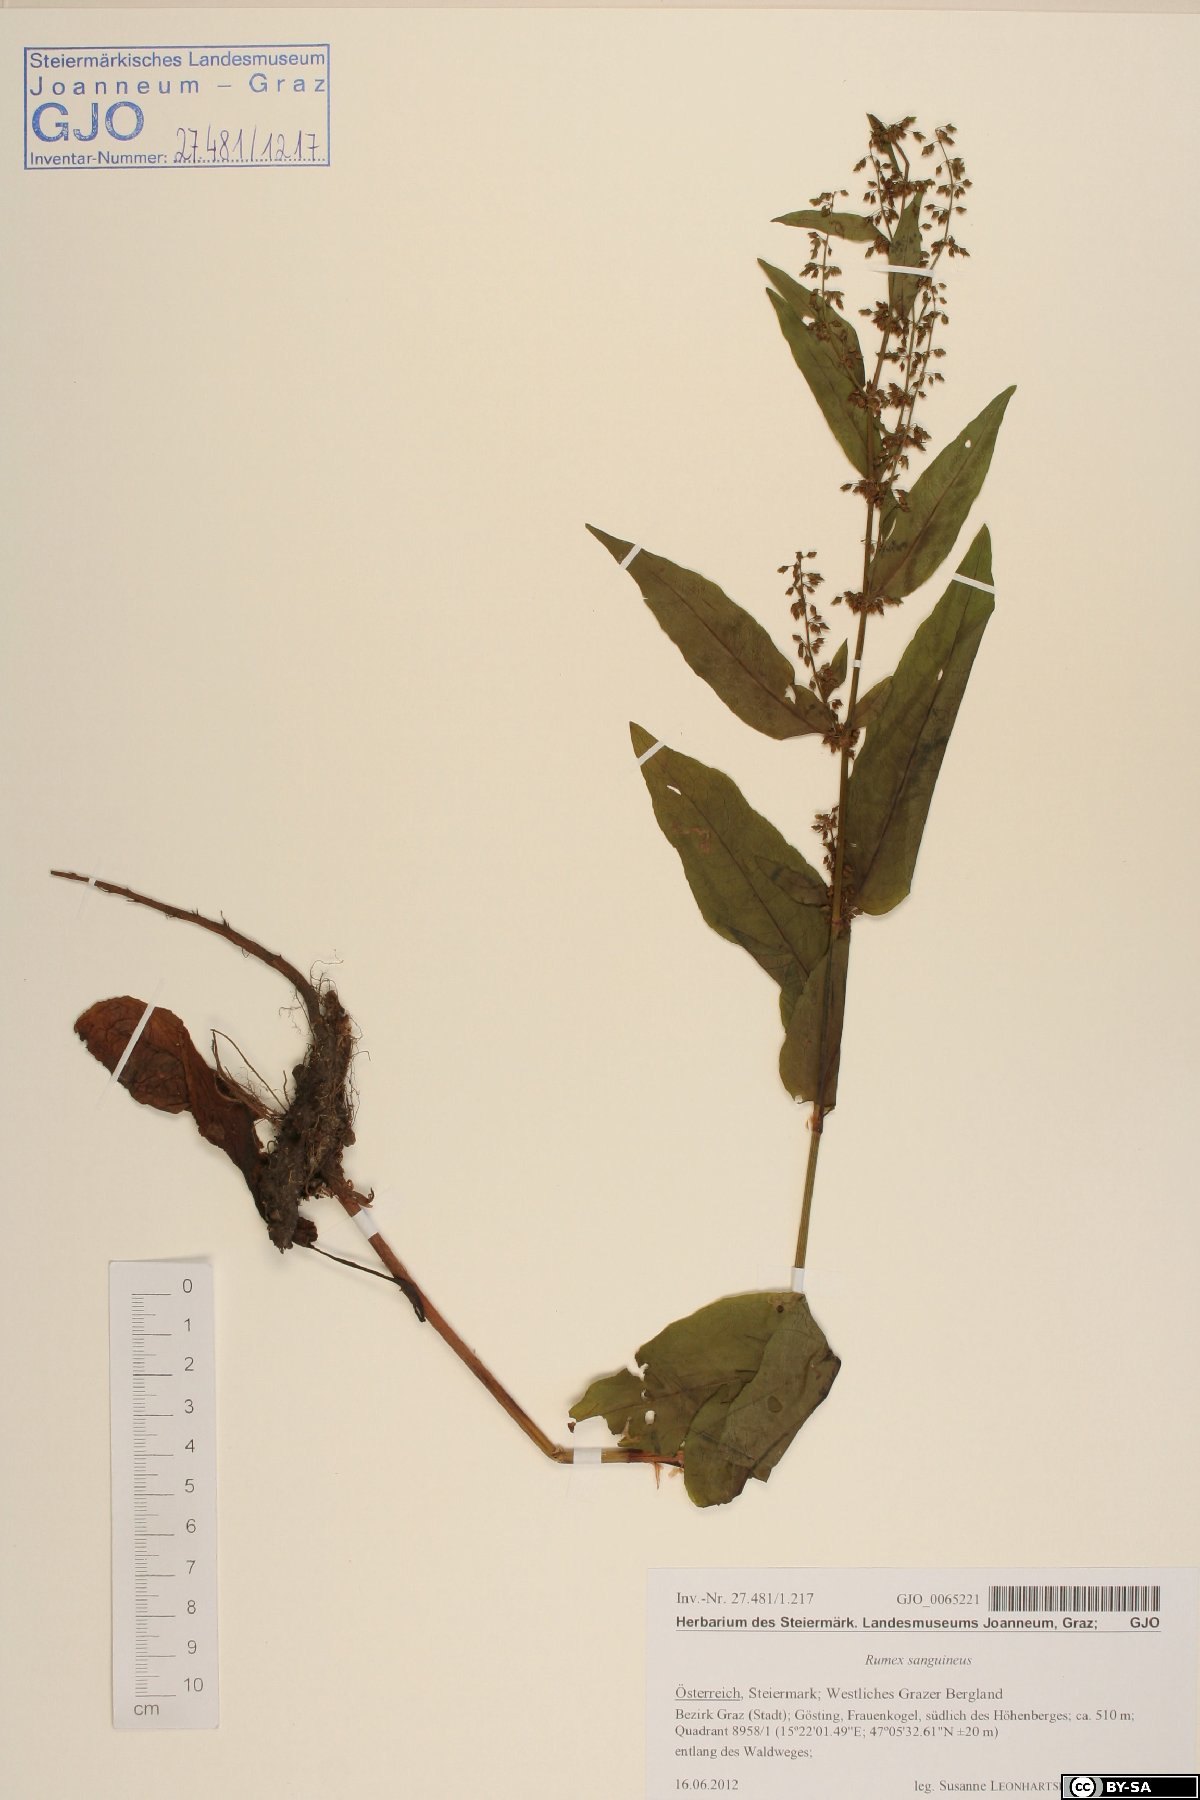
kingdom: Plantae
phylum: Tracheophyta
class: Magnoliopsida
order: Caryophyllales
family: Polygonaceae
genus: Rumex
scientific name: Rumex sanguineus
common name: Wood dock
